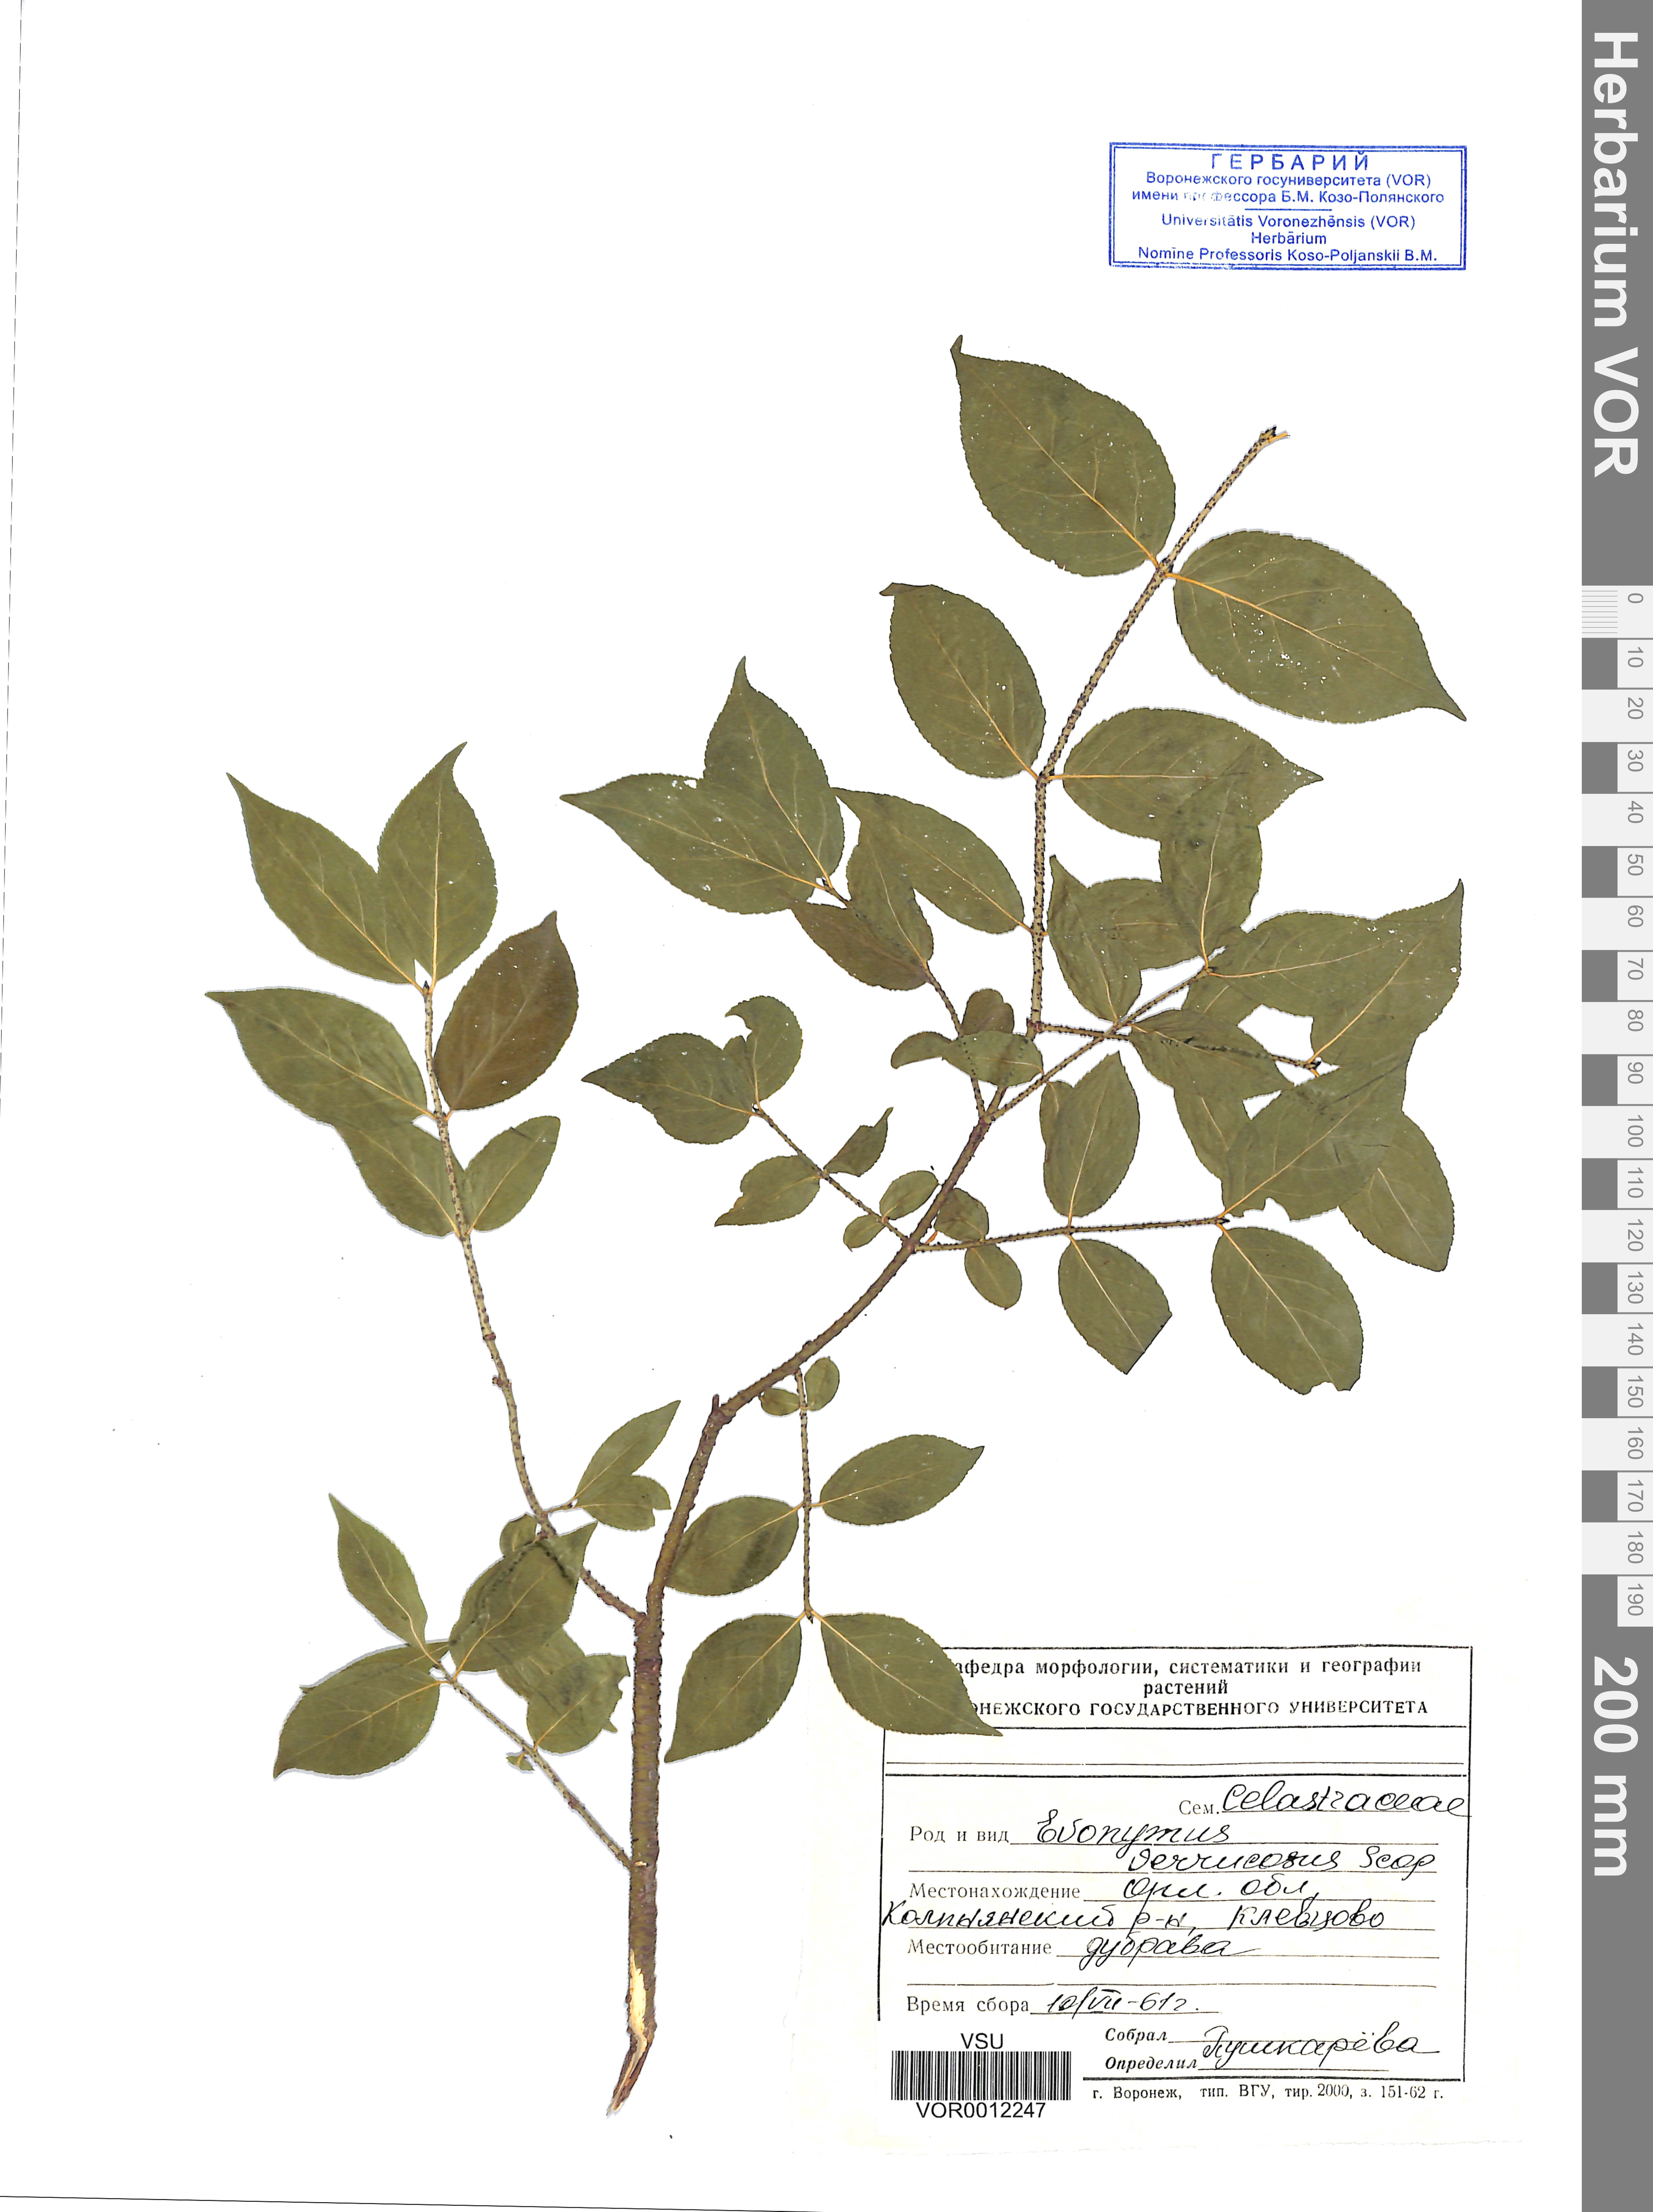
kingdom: Plantae
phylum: Tracheophyta
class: Magnoliopsida
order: Celastrales
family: Celastraceae
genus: Euonymus
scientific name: Euonymus verrucosus
